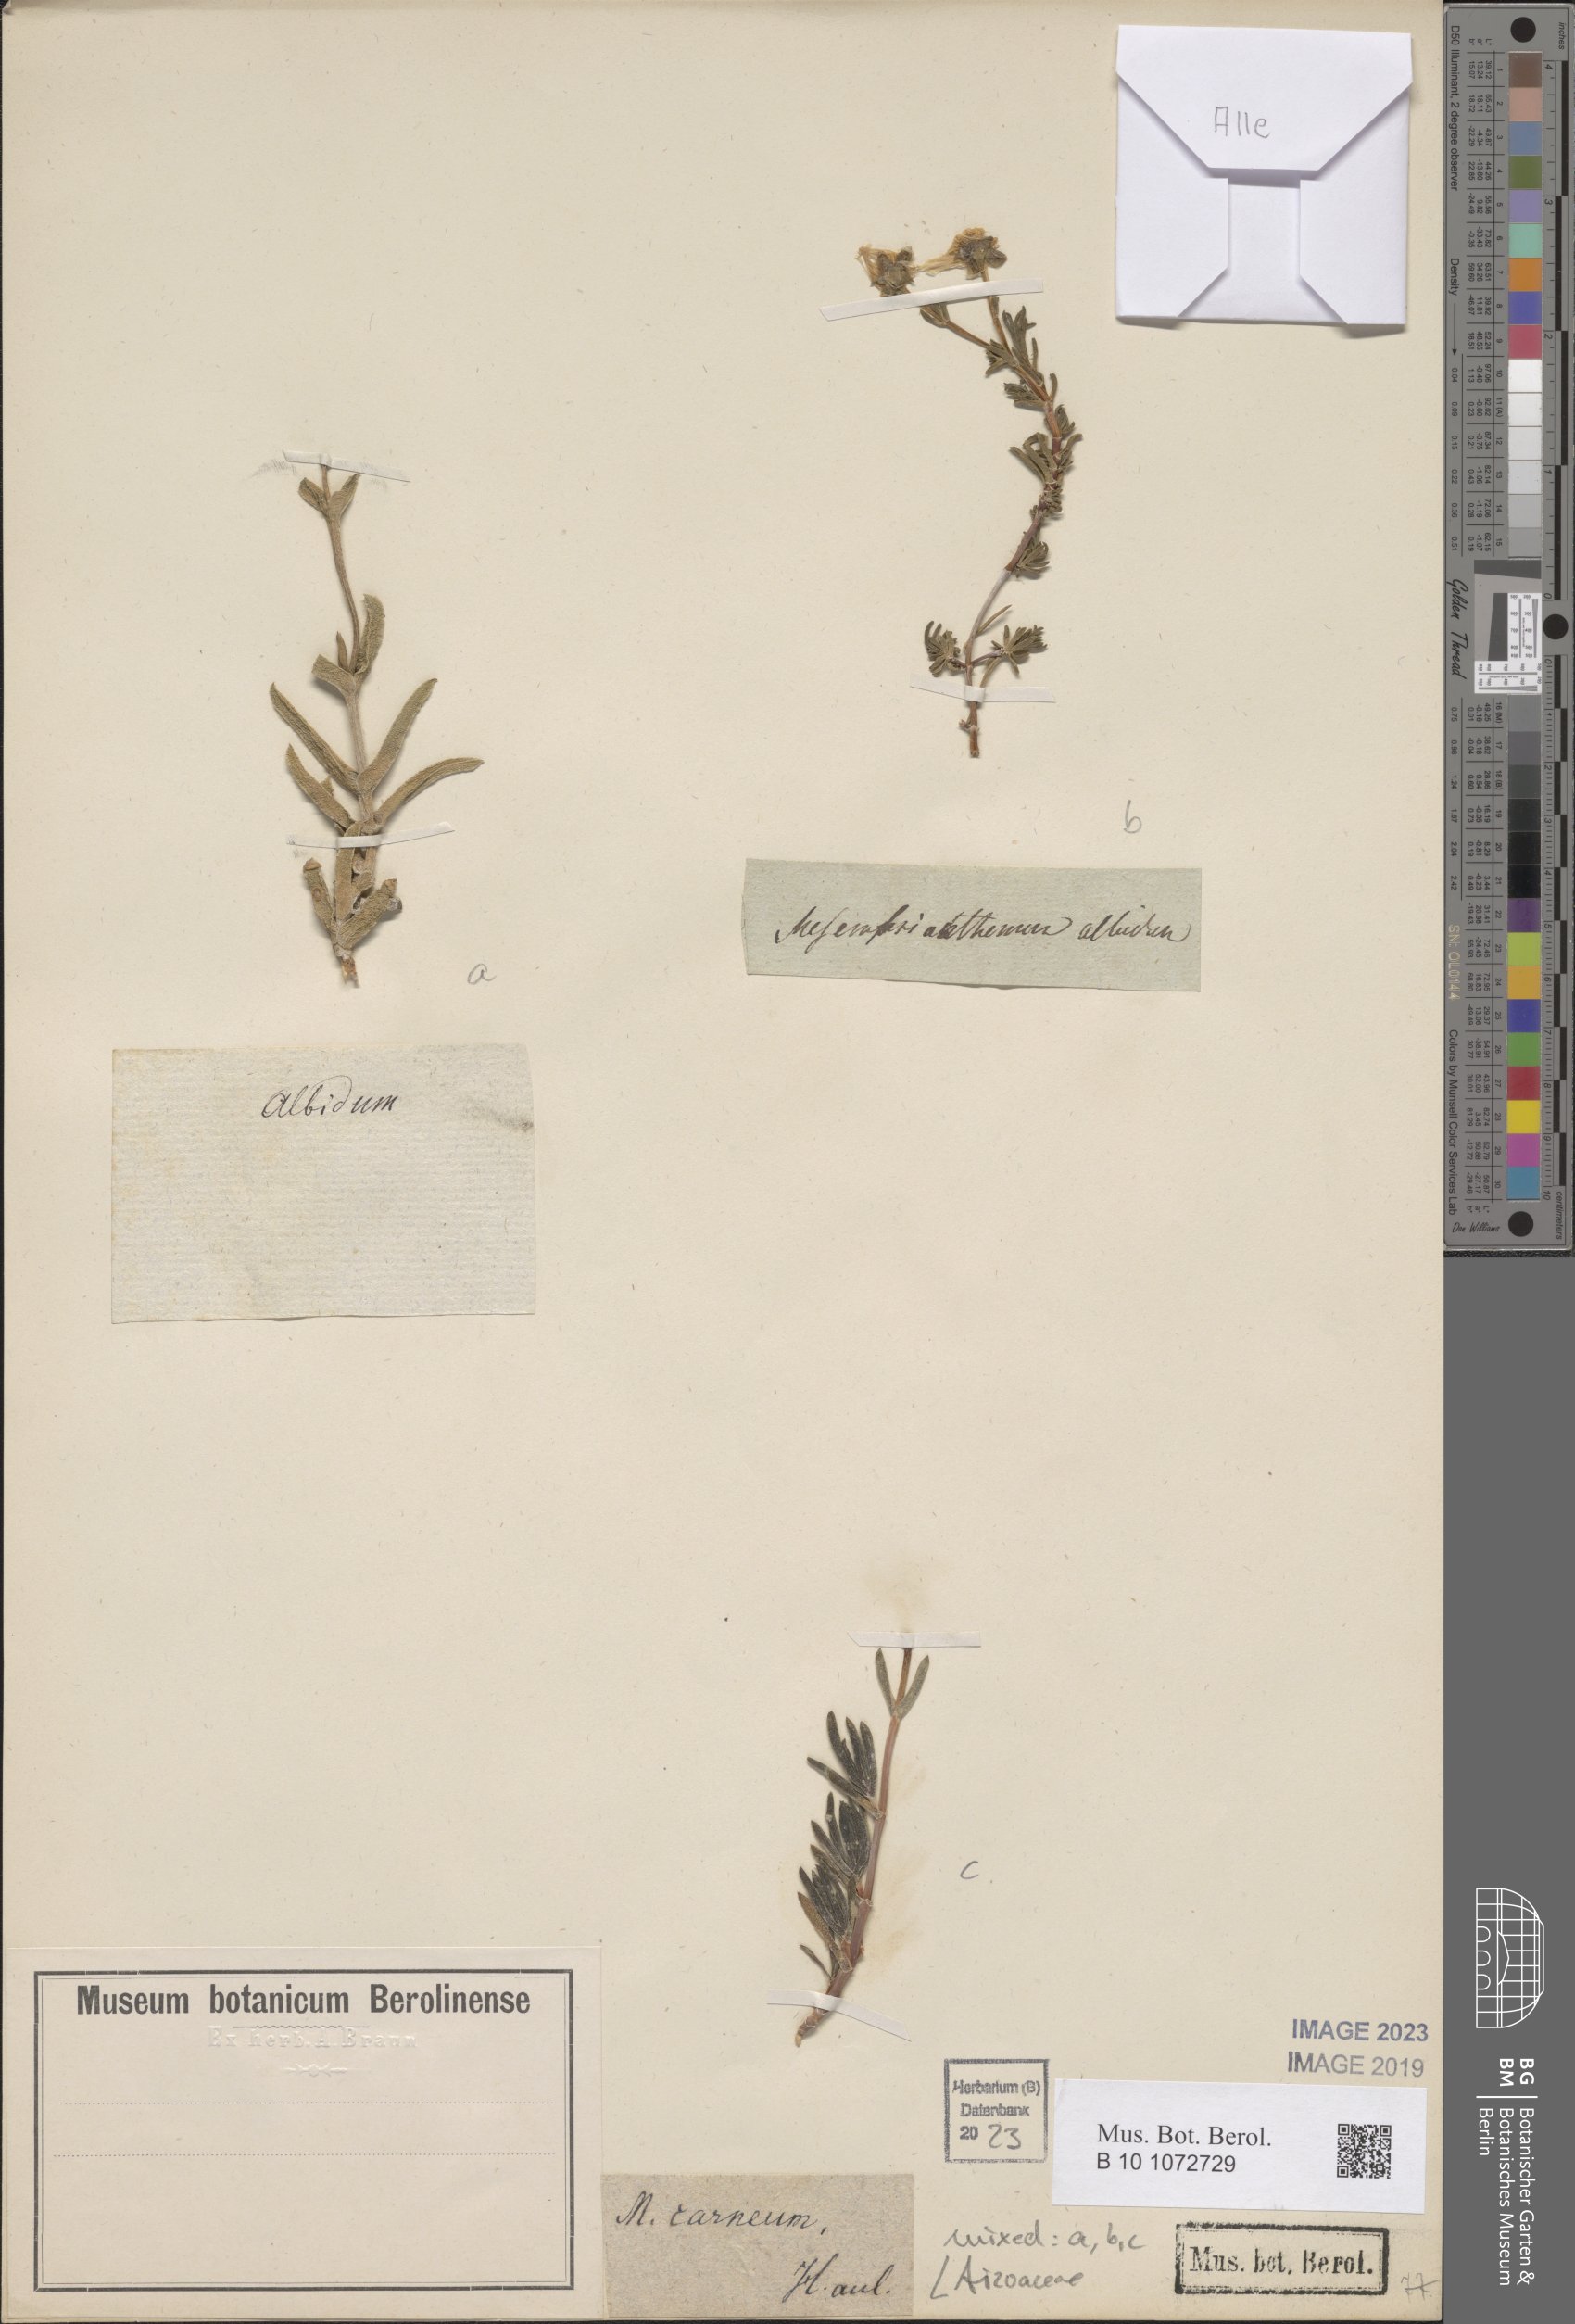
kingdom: Plantae
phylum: Tracheophyta
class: Magnoliopsida
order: Caryophyllales
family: Aizoaceae
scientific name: Aizoaceae
